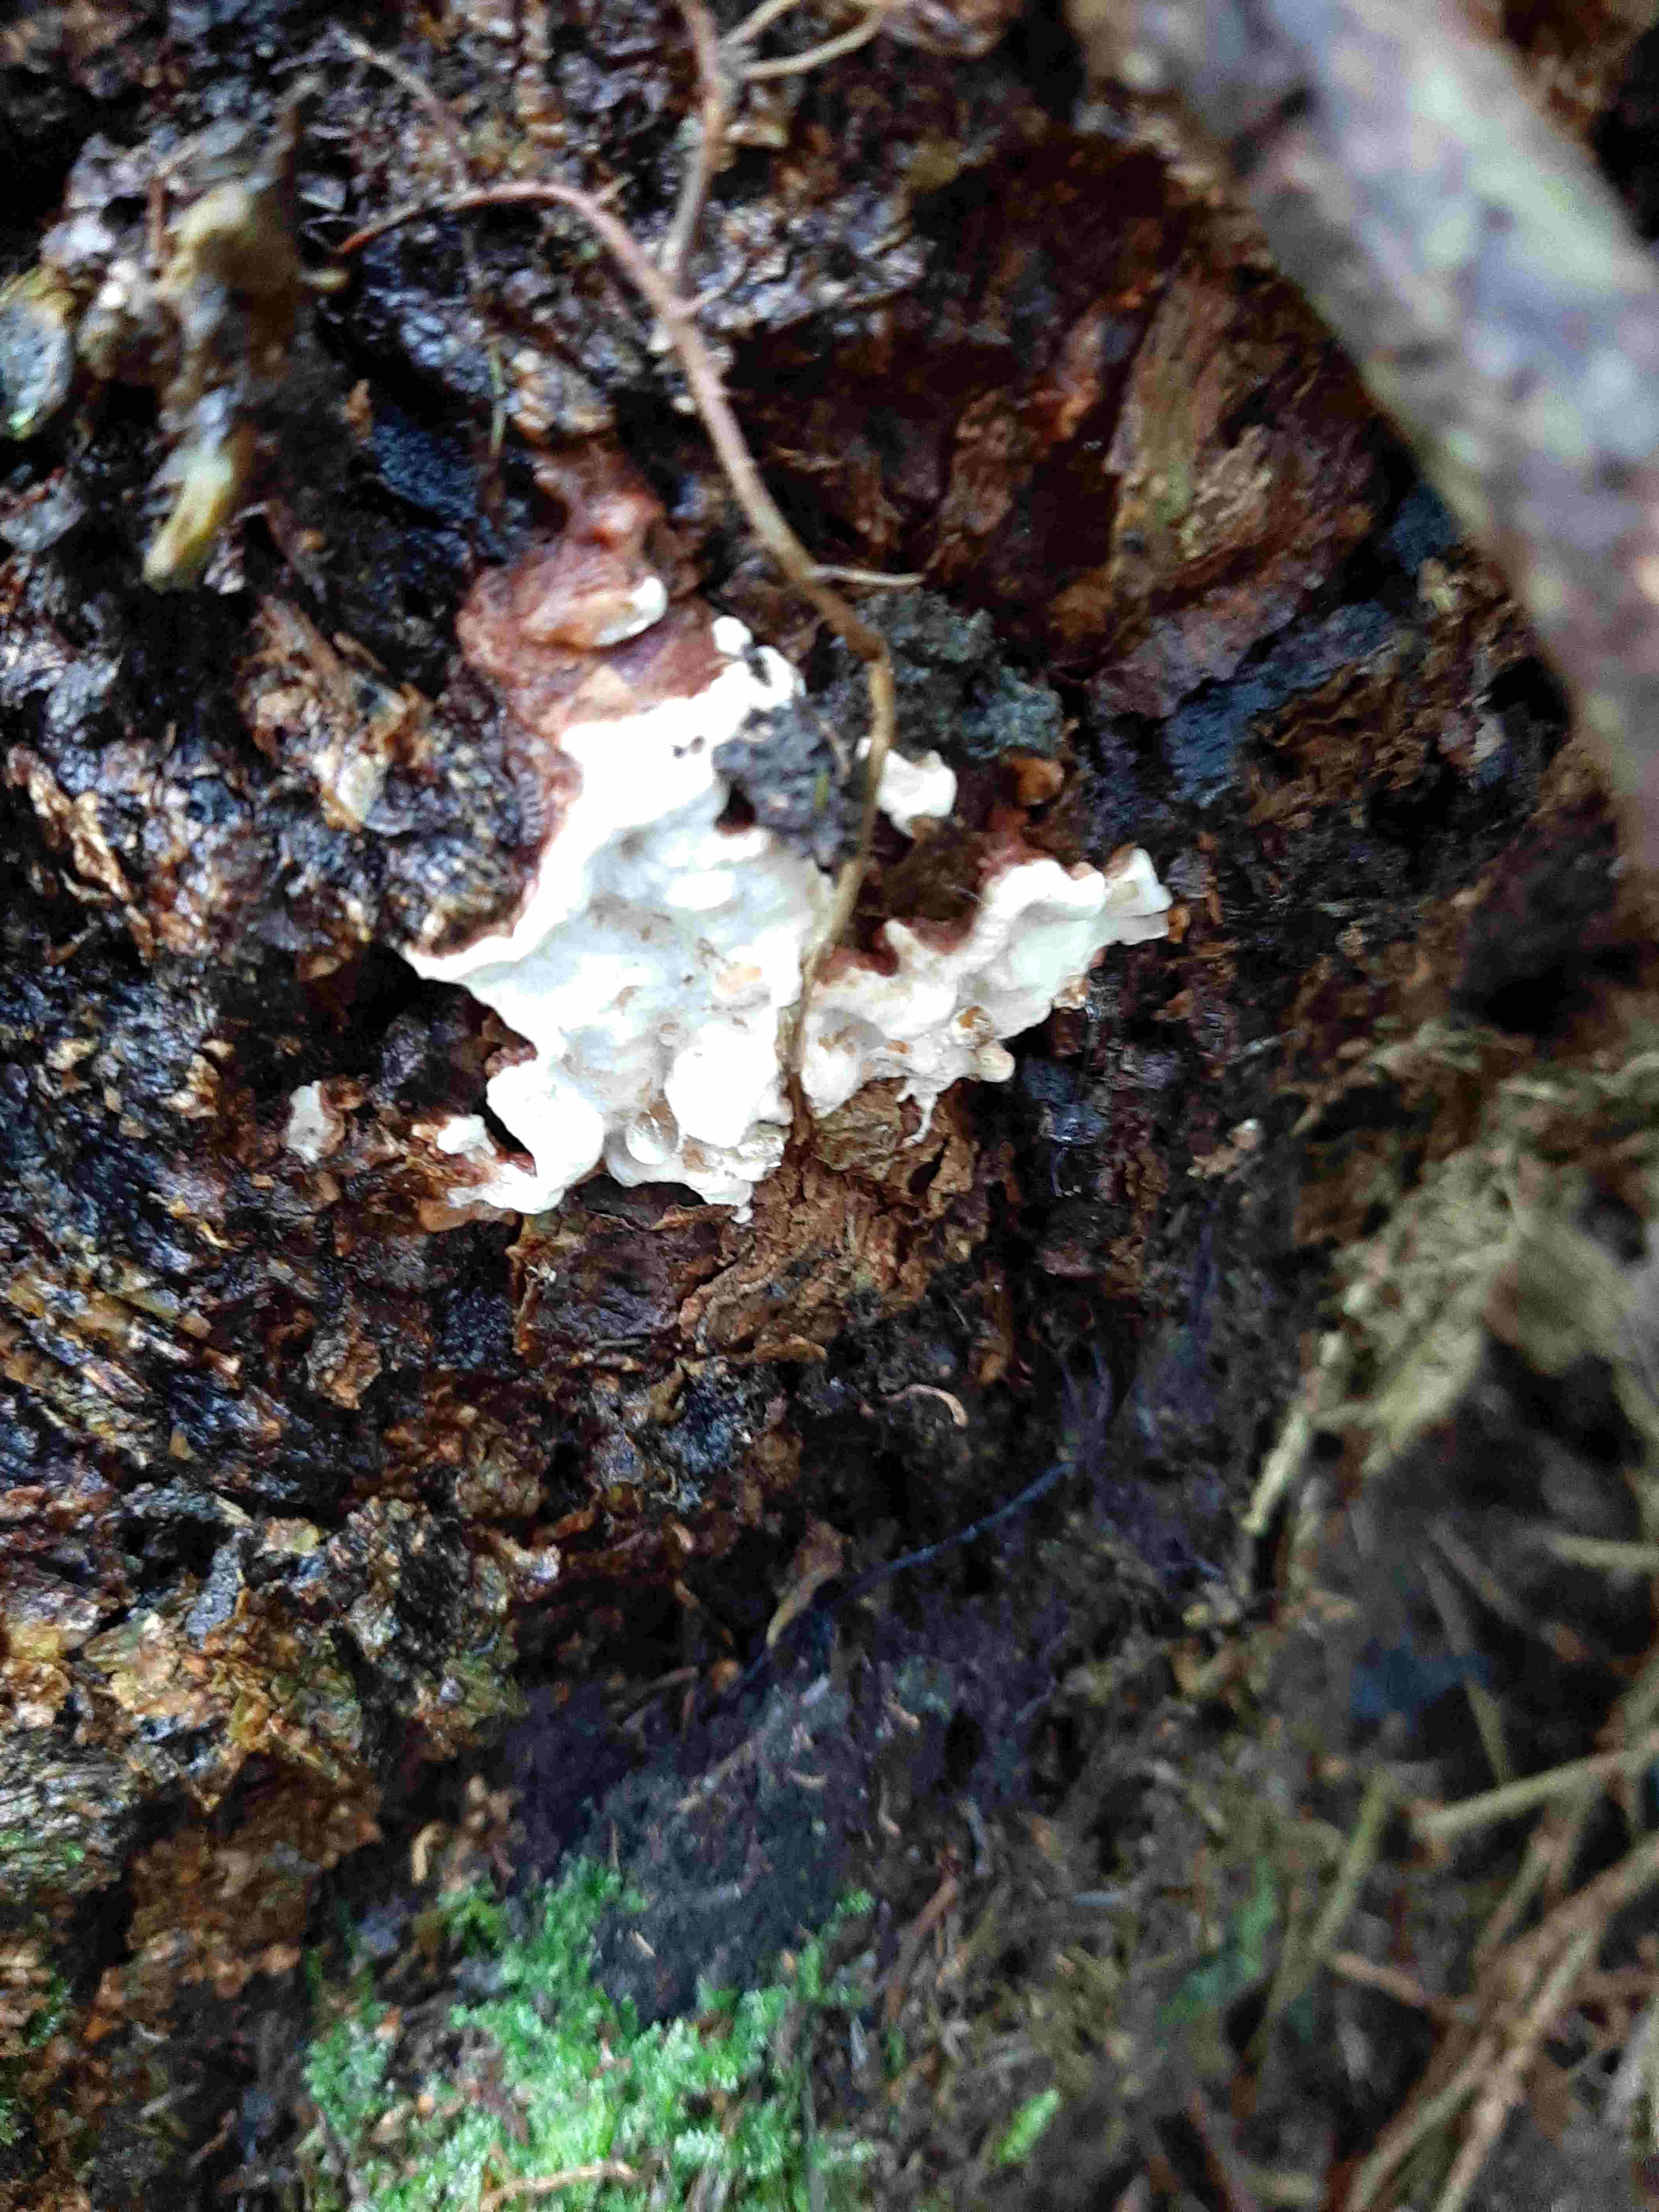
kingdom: Fungi
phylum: Basidiomycota
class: Agaricomycetes
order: Russulales
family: Bondarzewiaceae
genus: Heterobasidion
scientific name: Heterobasidion annosum
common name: almindelig rodfordærver
